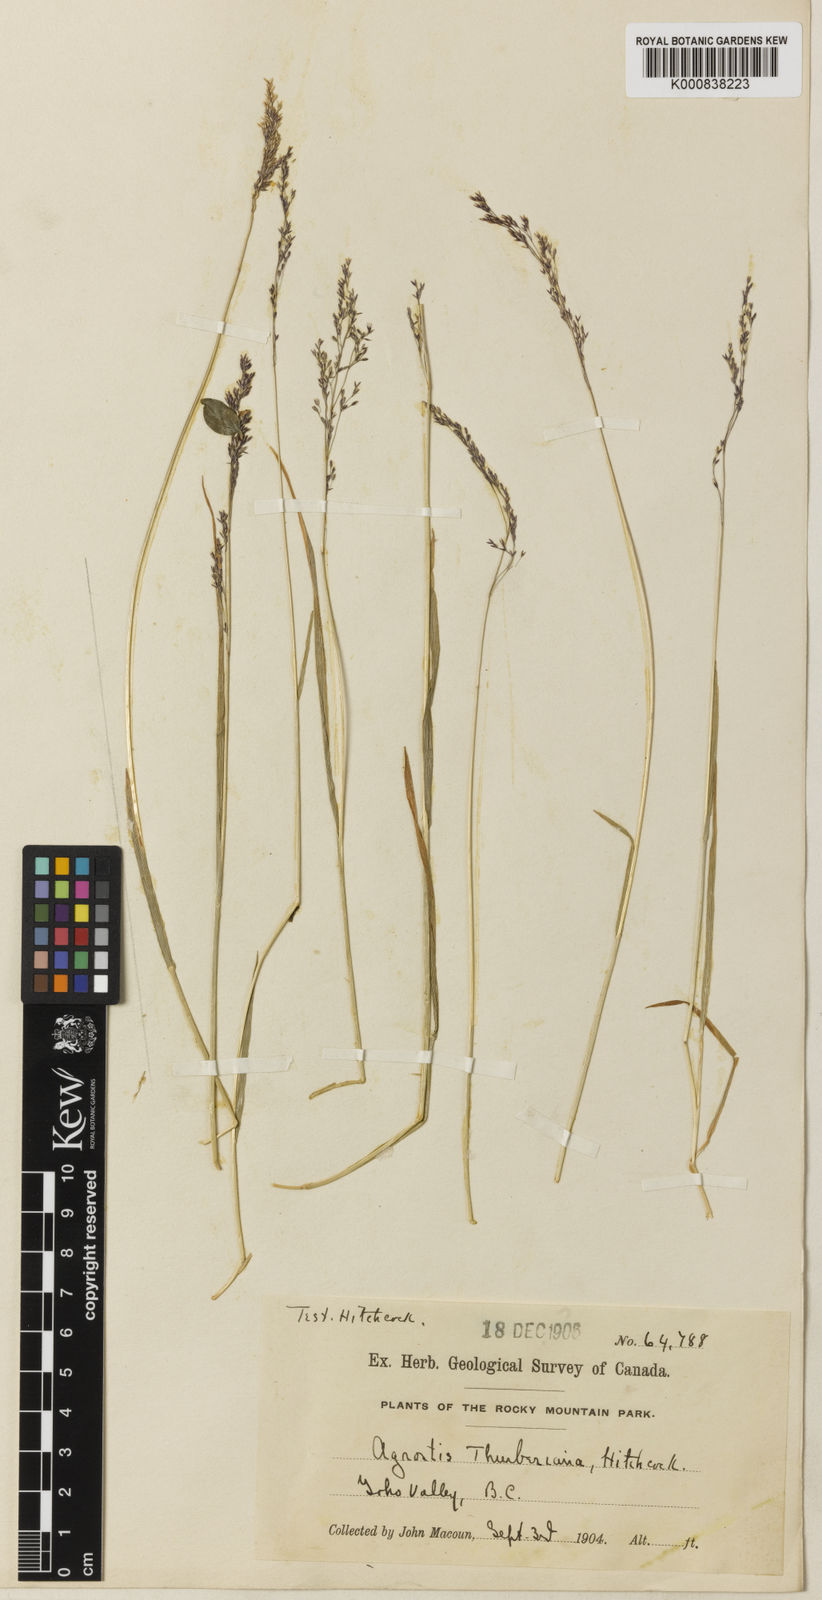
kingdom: Plantae
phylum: Tracheophyta
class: Liliopsida
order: Poales
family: Poaceae
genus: Podagrostis
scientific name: Podagrostis thurberiana
